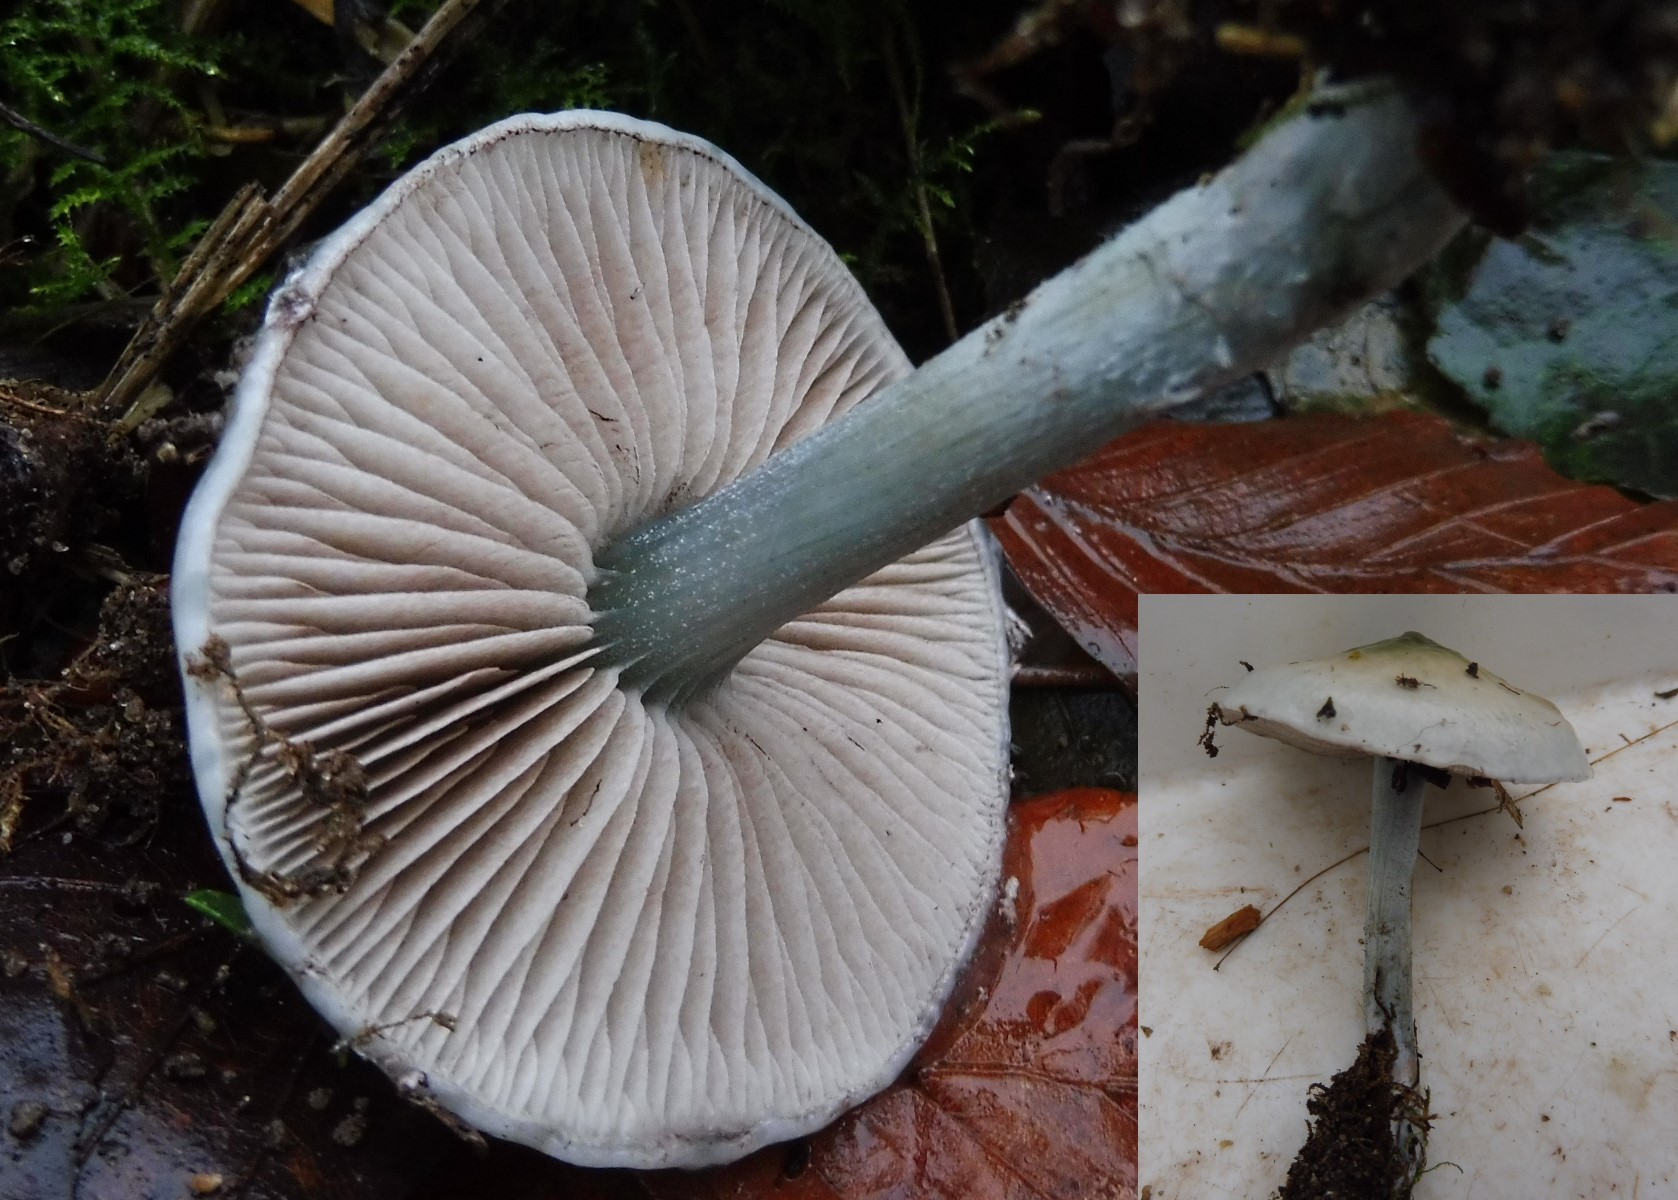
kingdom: Fungi
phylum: Basidiomycota
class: Agaricomycetes
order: Agaricales
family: Strophariaceae
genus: Stropharia
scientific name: Stropharia cyanea
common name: blågrøn bredblad
